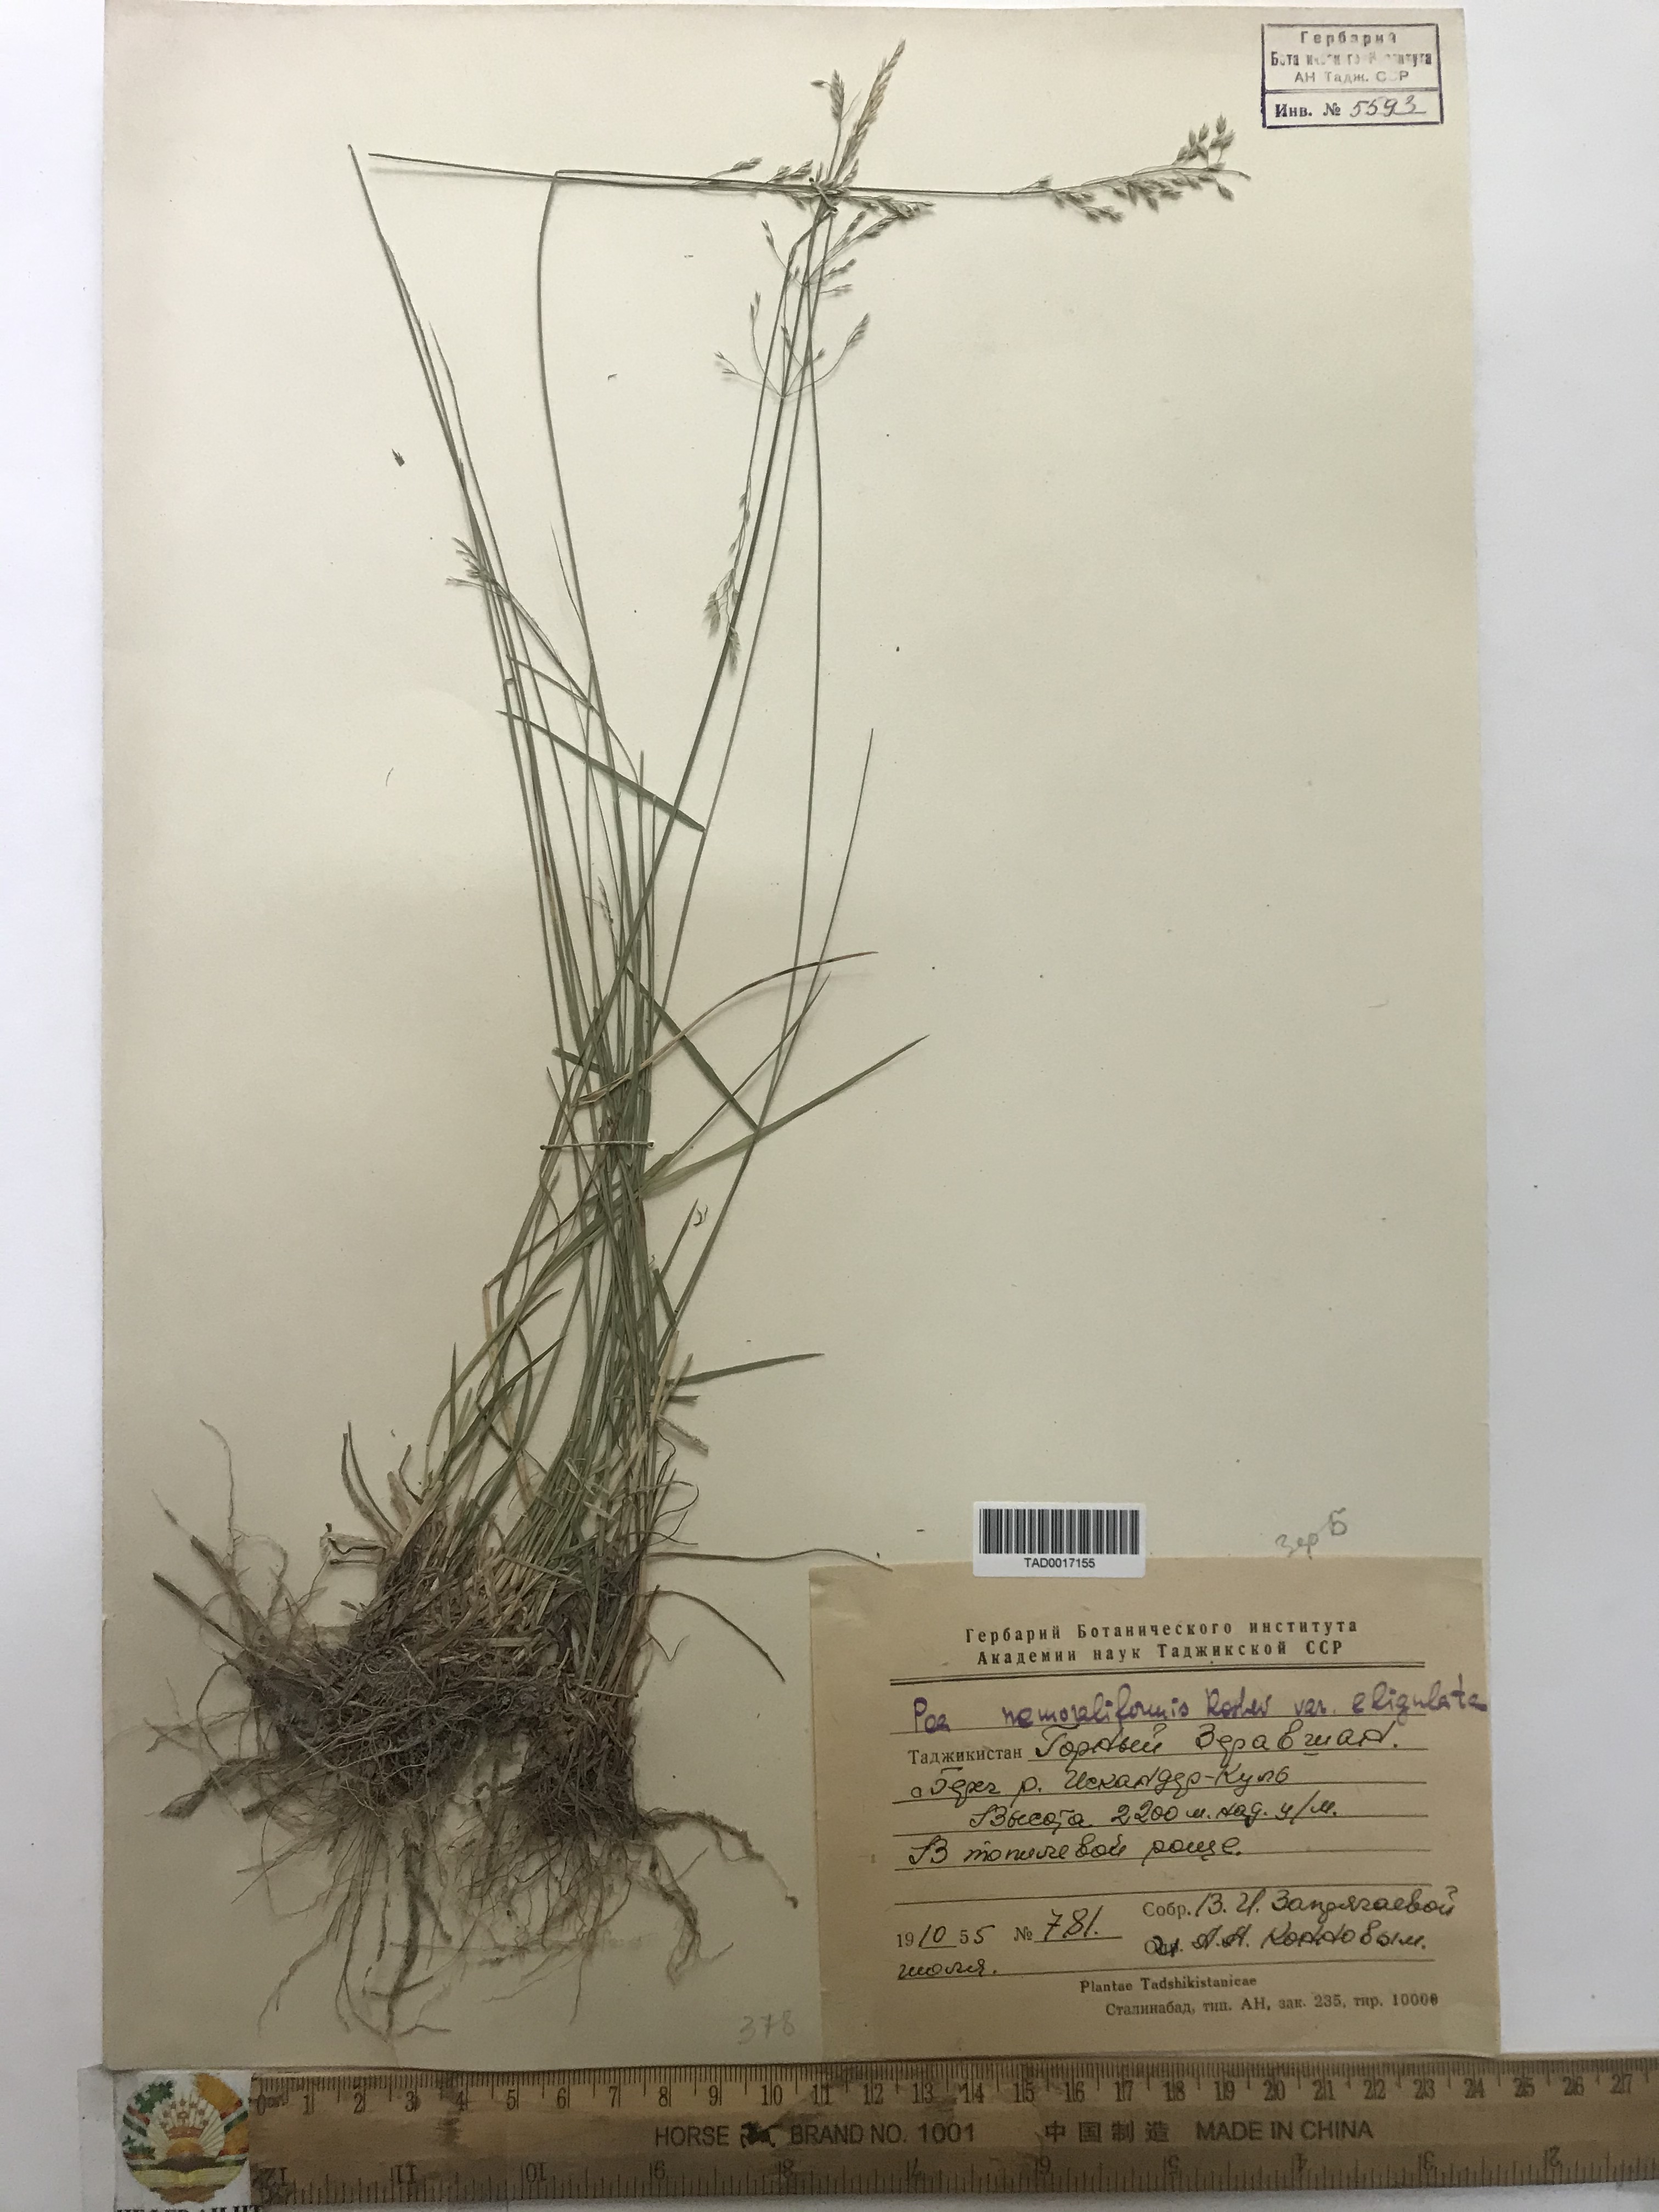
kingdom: Plantae
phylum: Tracheophyta
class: Liliopsida
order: Poales
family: Poaceae
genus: Poa
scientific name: Poa urssulensis
